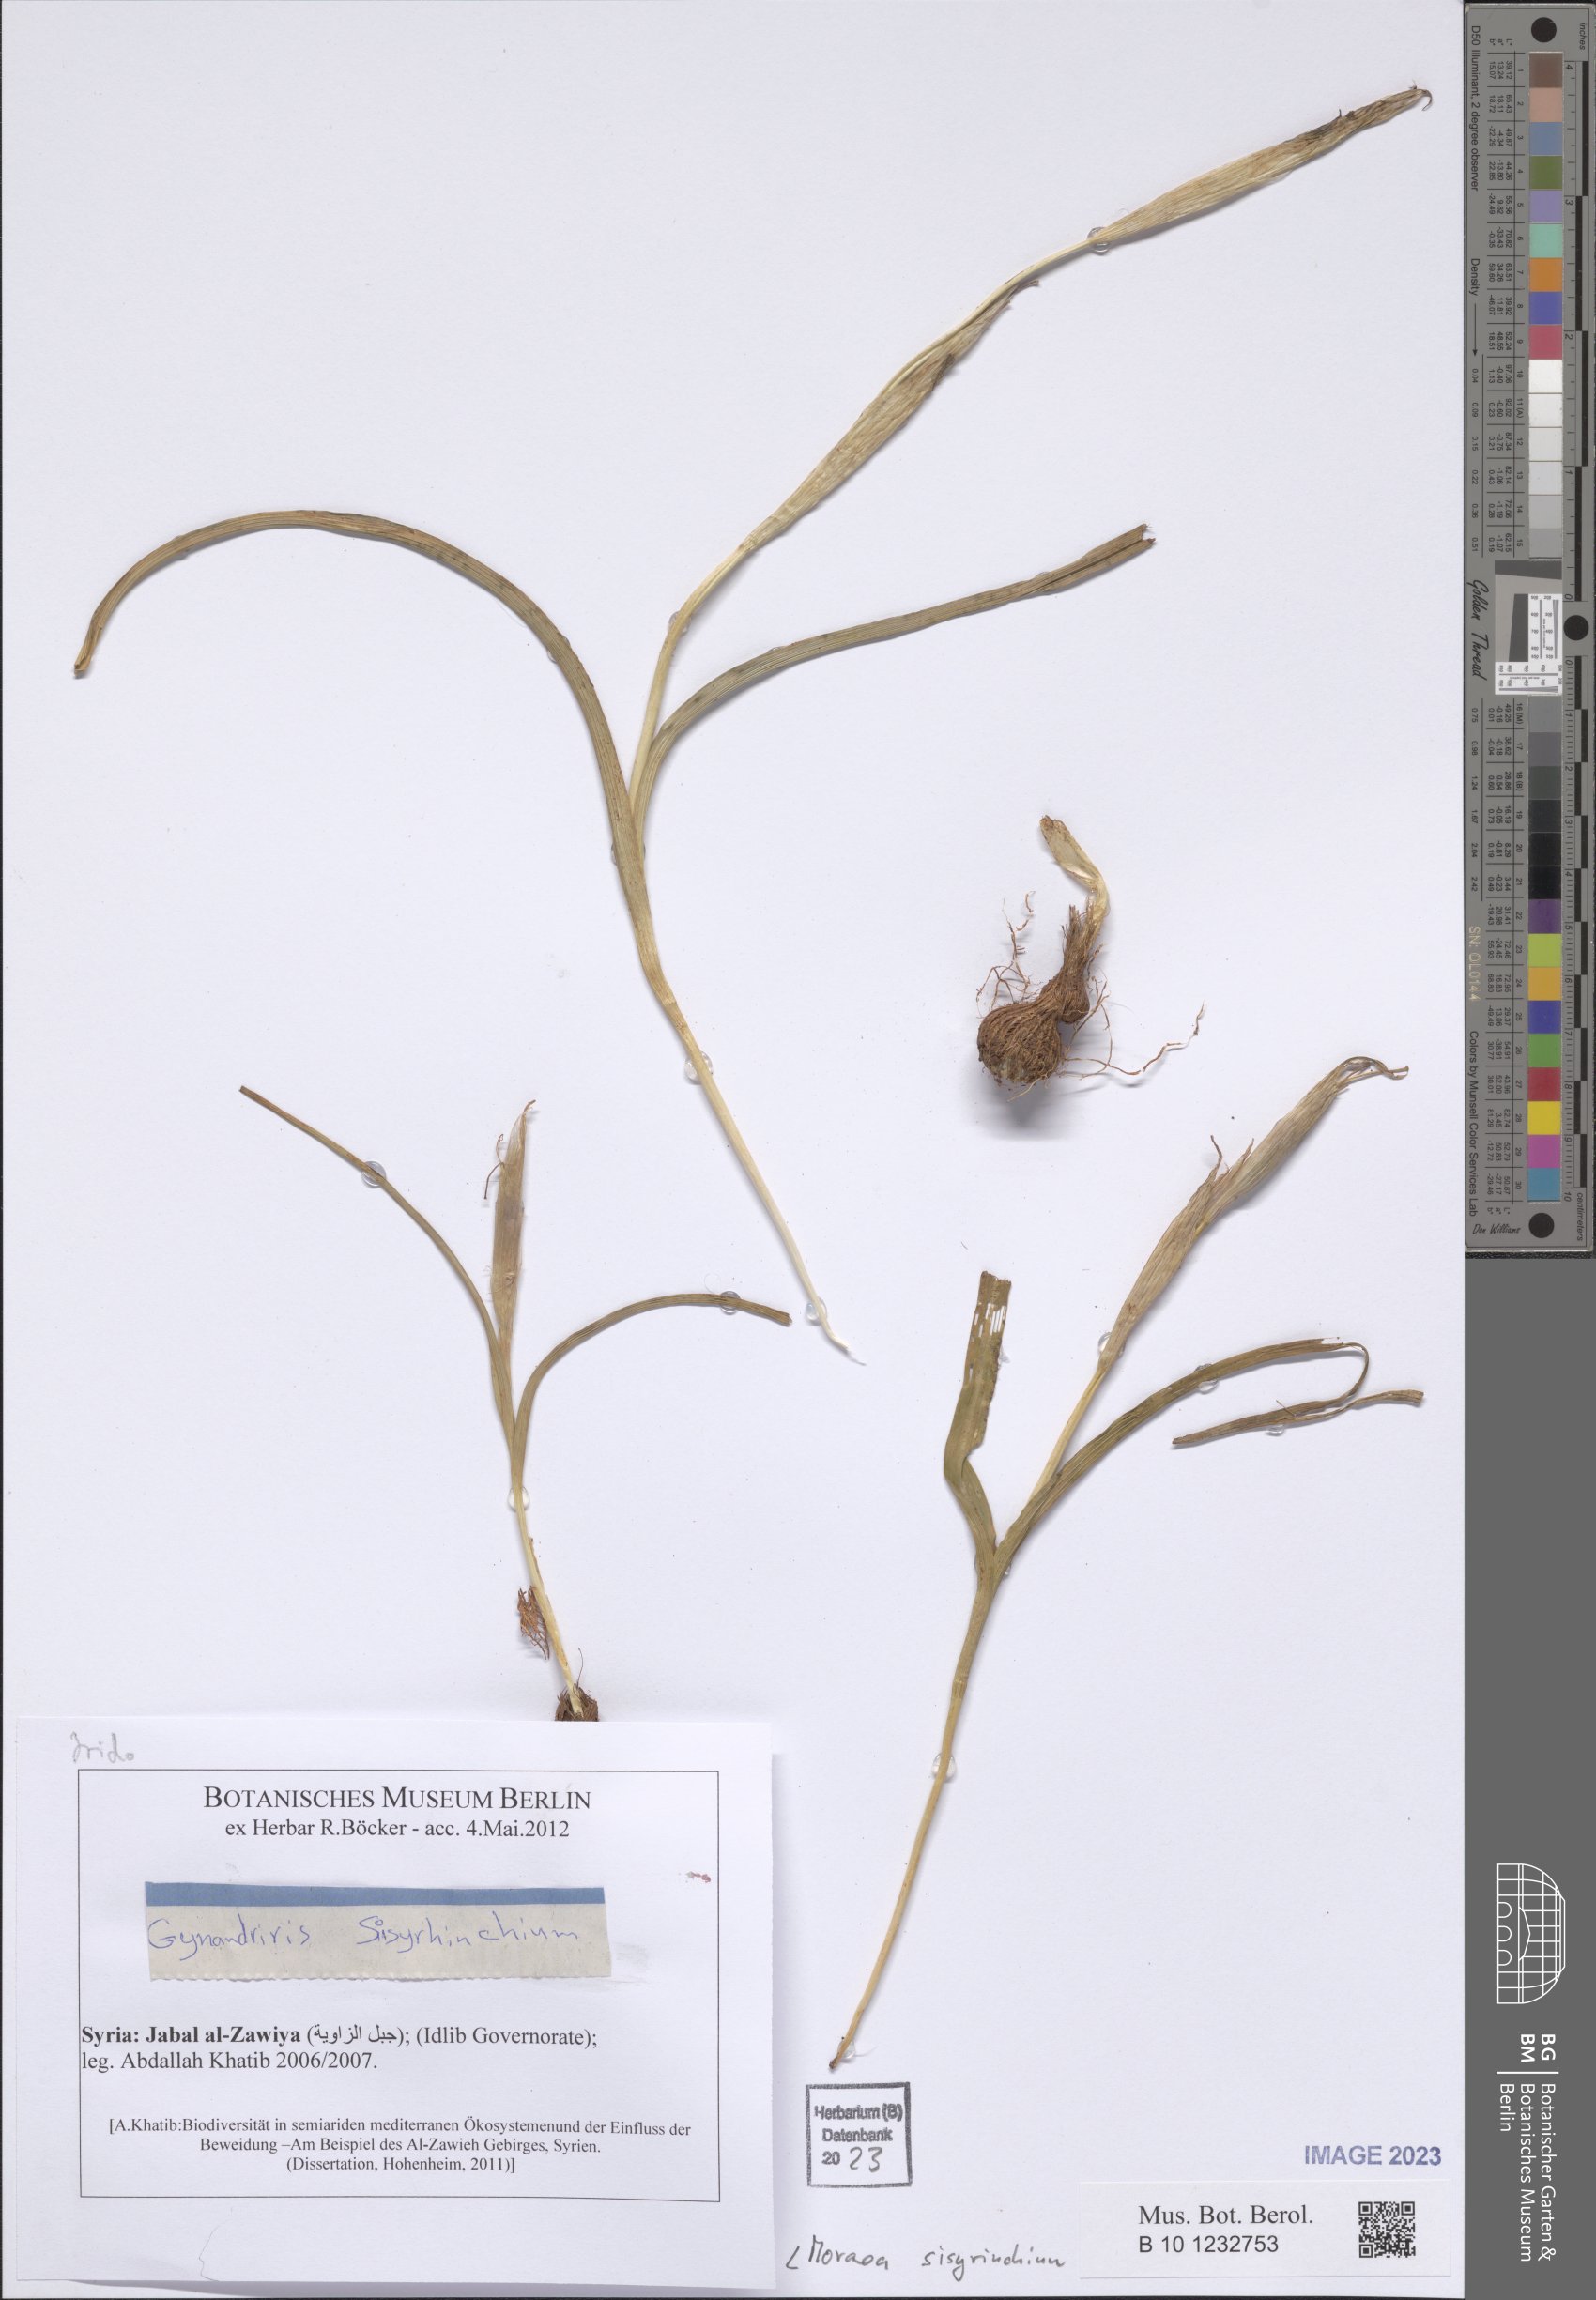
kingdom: Plantae
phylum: Tracheophyta
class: Liliopsida
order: Asparagales
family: Iridaceae
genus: Moraea
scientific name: Moraea sisyrinchium
